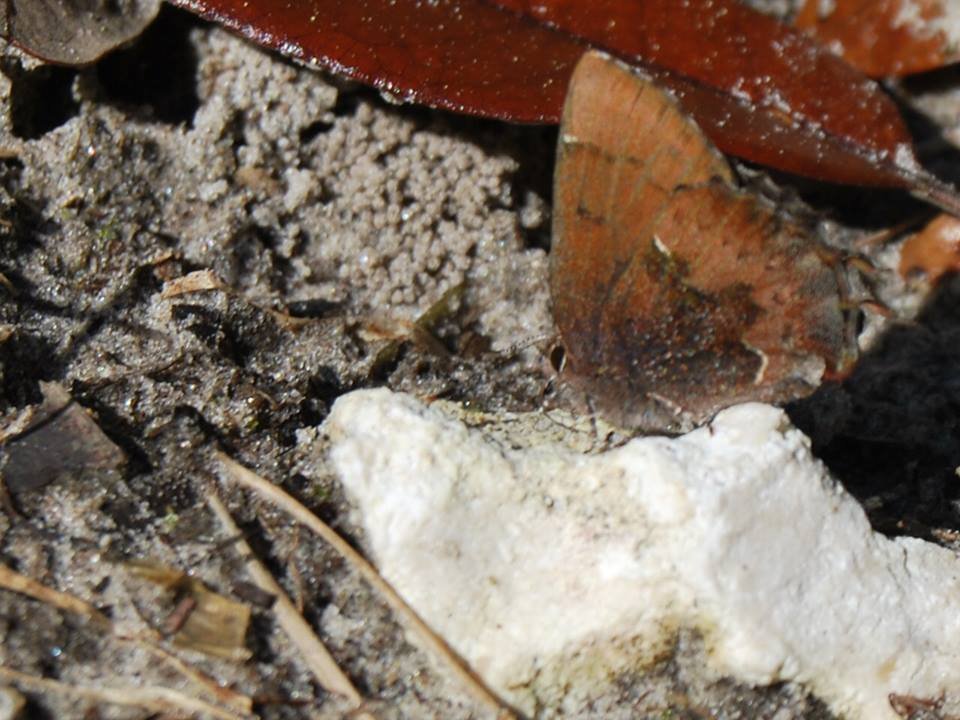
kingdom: Animalia
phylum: Arthropoda
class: Insecta
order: Lepidoptera
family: Lycaenidae
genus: Incisalia
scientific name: Incisalia henrici
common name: Henry's Elfin
